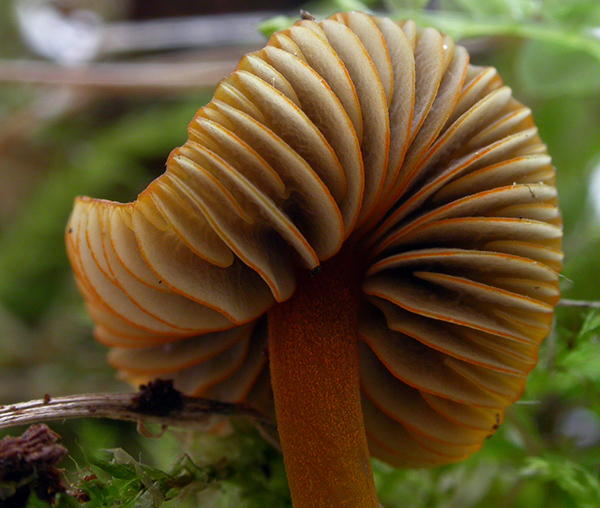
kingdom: Fungi
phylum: Basidiomycota
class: Agaricomycetes
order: Agaricales
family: Mycenaceae
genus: Mycena
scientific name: Mycena aurantiomarginata
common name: orangeægget huesvamp
